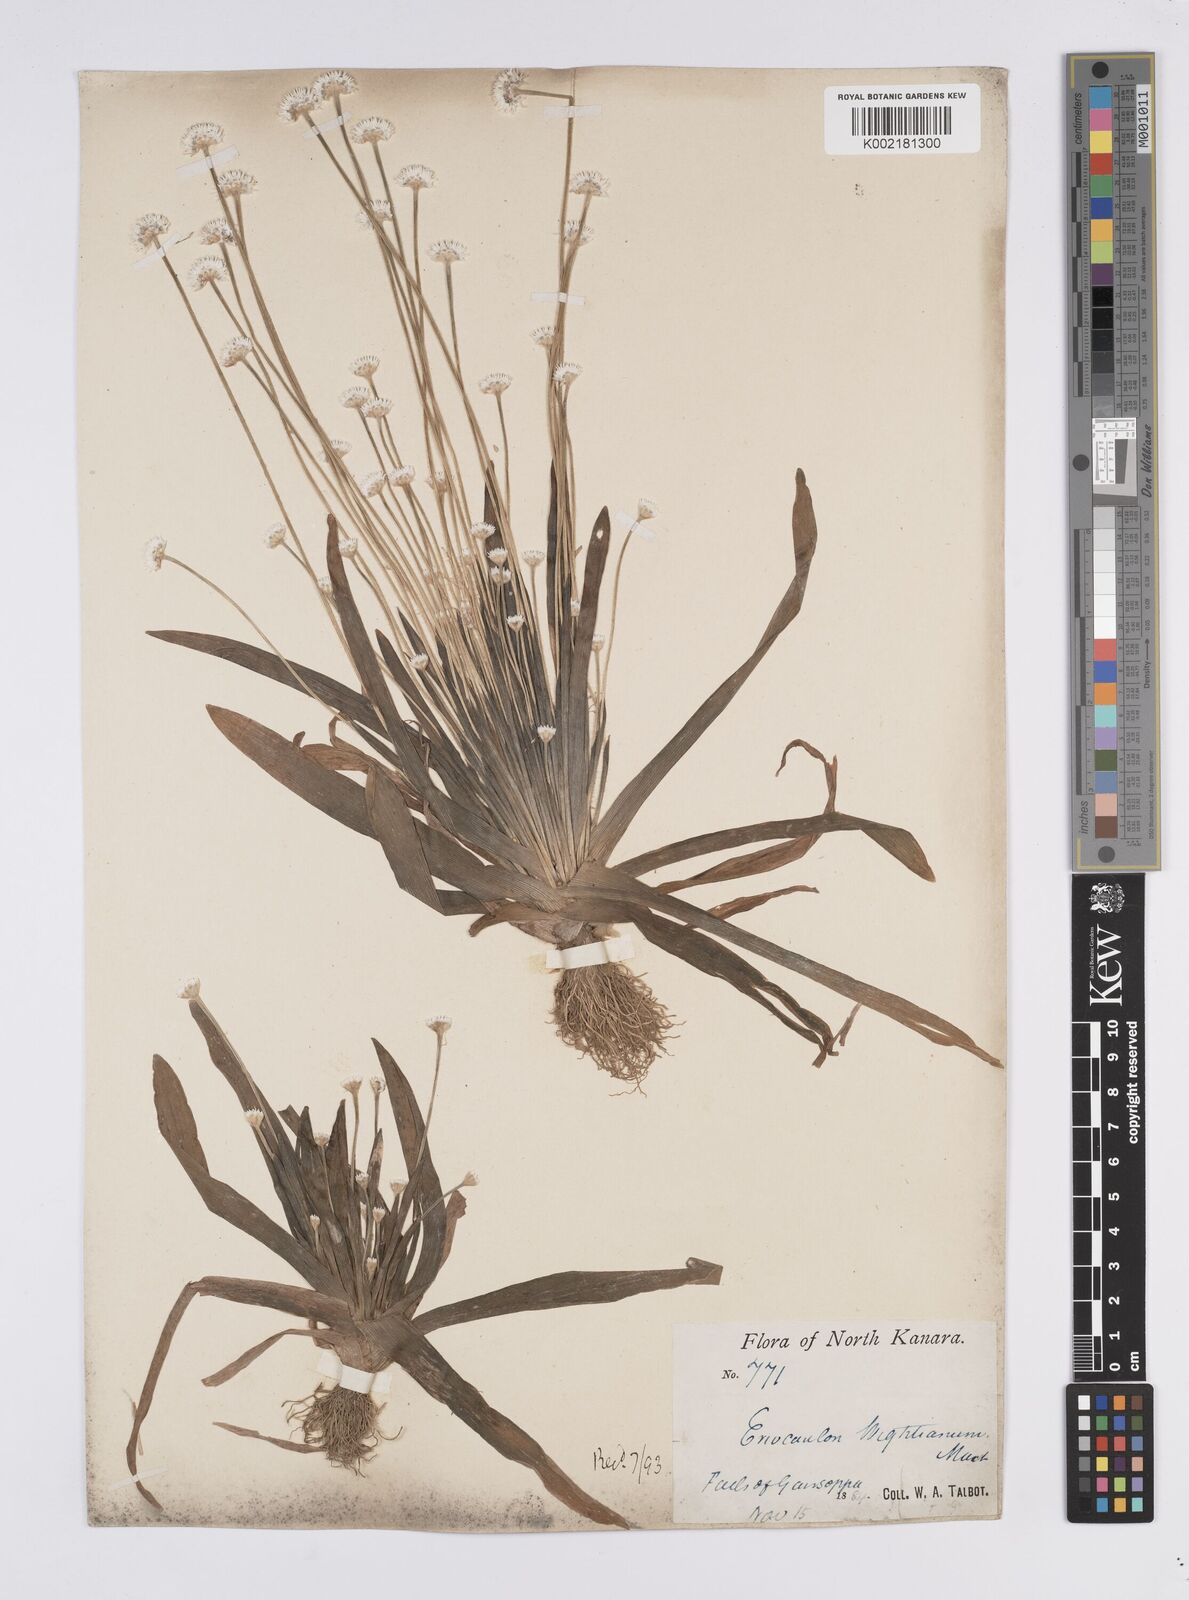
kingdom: Plantae
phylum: Tracheophyta
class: Liliopsida
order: Poales
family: Eriocaulaceae
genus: Eriocaulon
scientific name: Eriocaulon robustobrownianum
